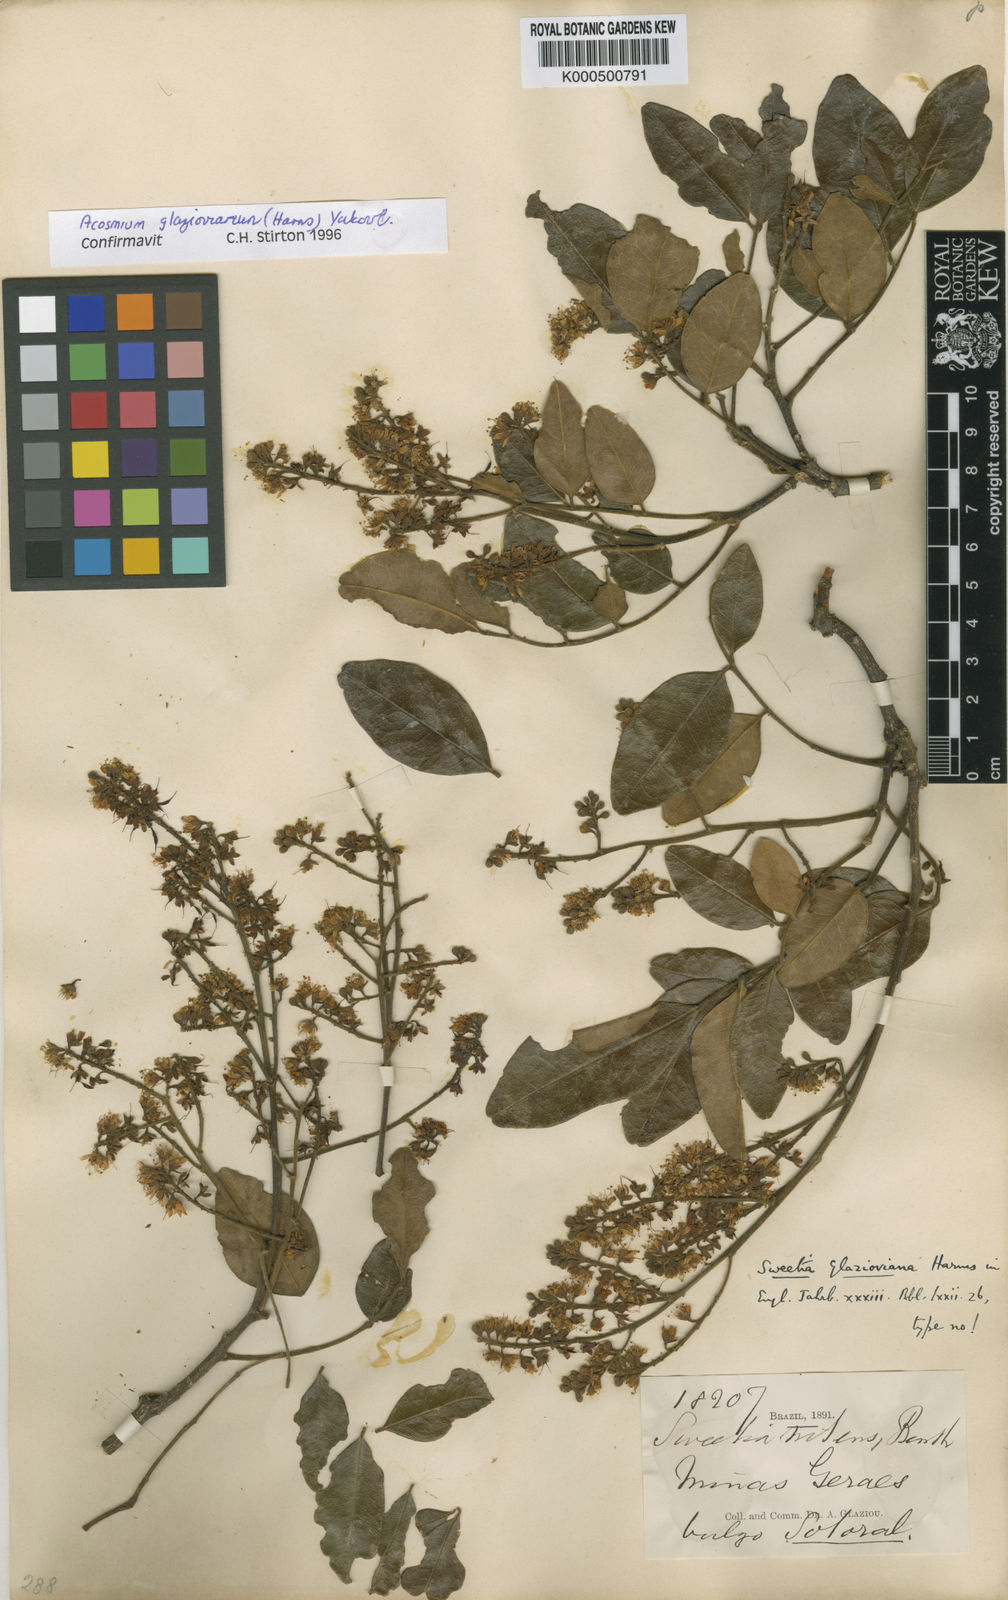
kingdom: Plantae
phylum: Tracheophyta
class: Magnoliopsida
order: Fabales
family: Fabaceae
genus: Leptolobium
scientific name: Leptolobium glaziovianum
